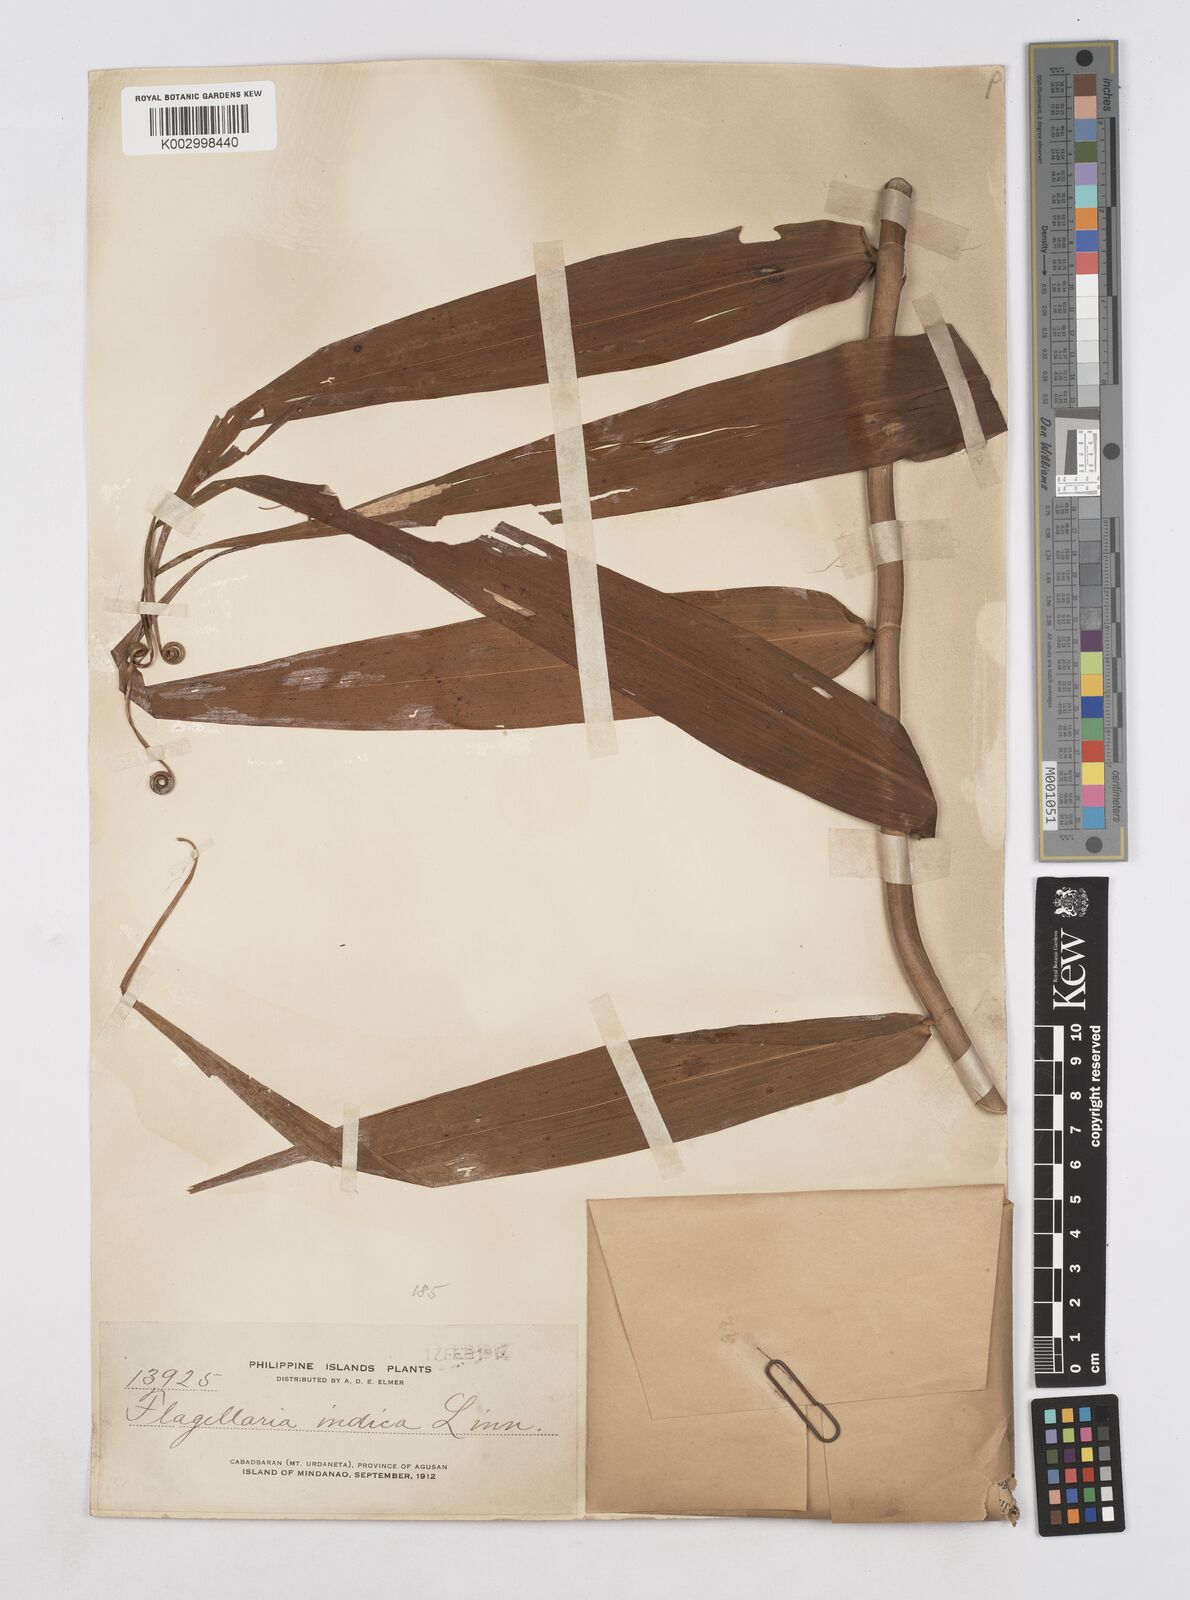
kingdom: Plantae
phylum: Tracheophyta
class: Liliopsida
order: Poales
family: Flagellariaceae
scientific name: Flagellariaceae
